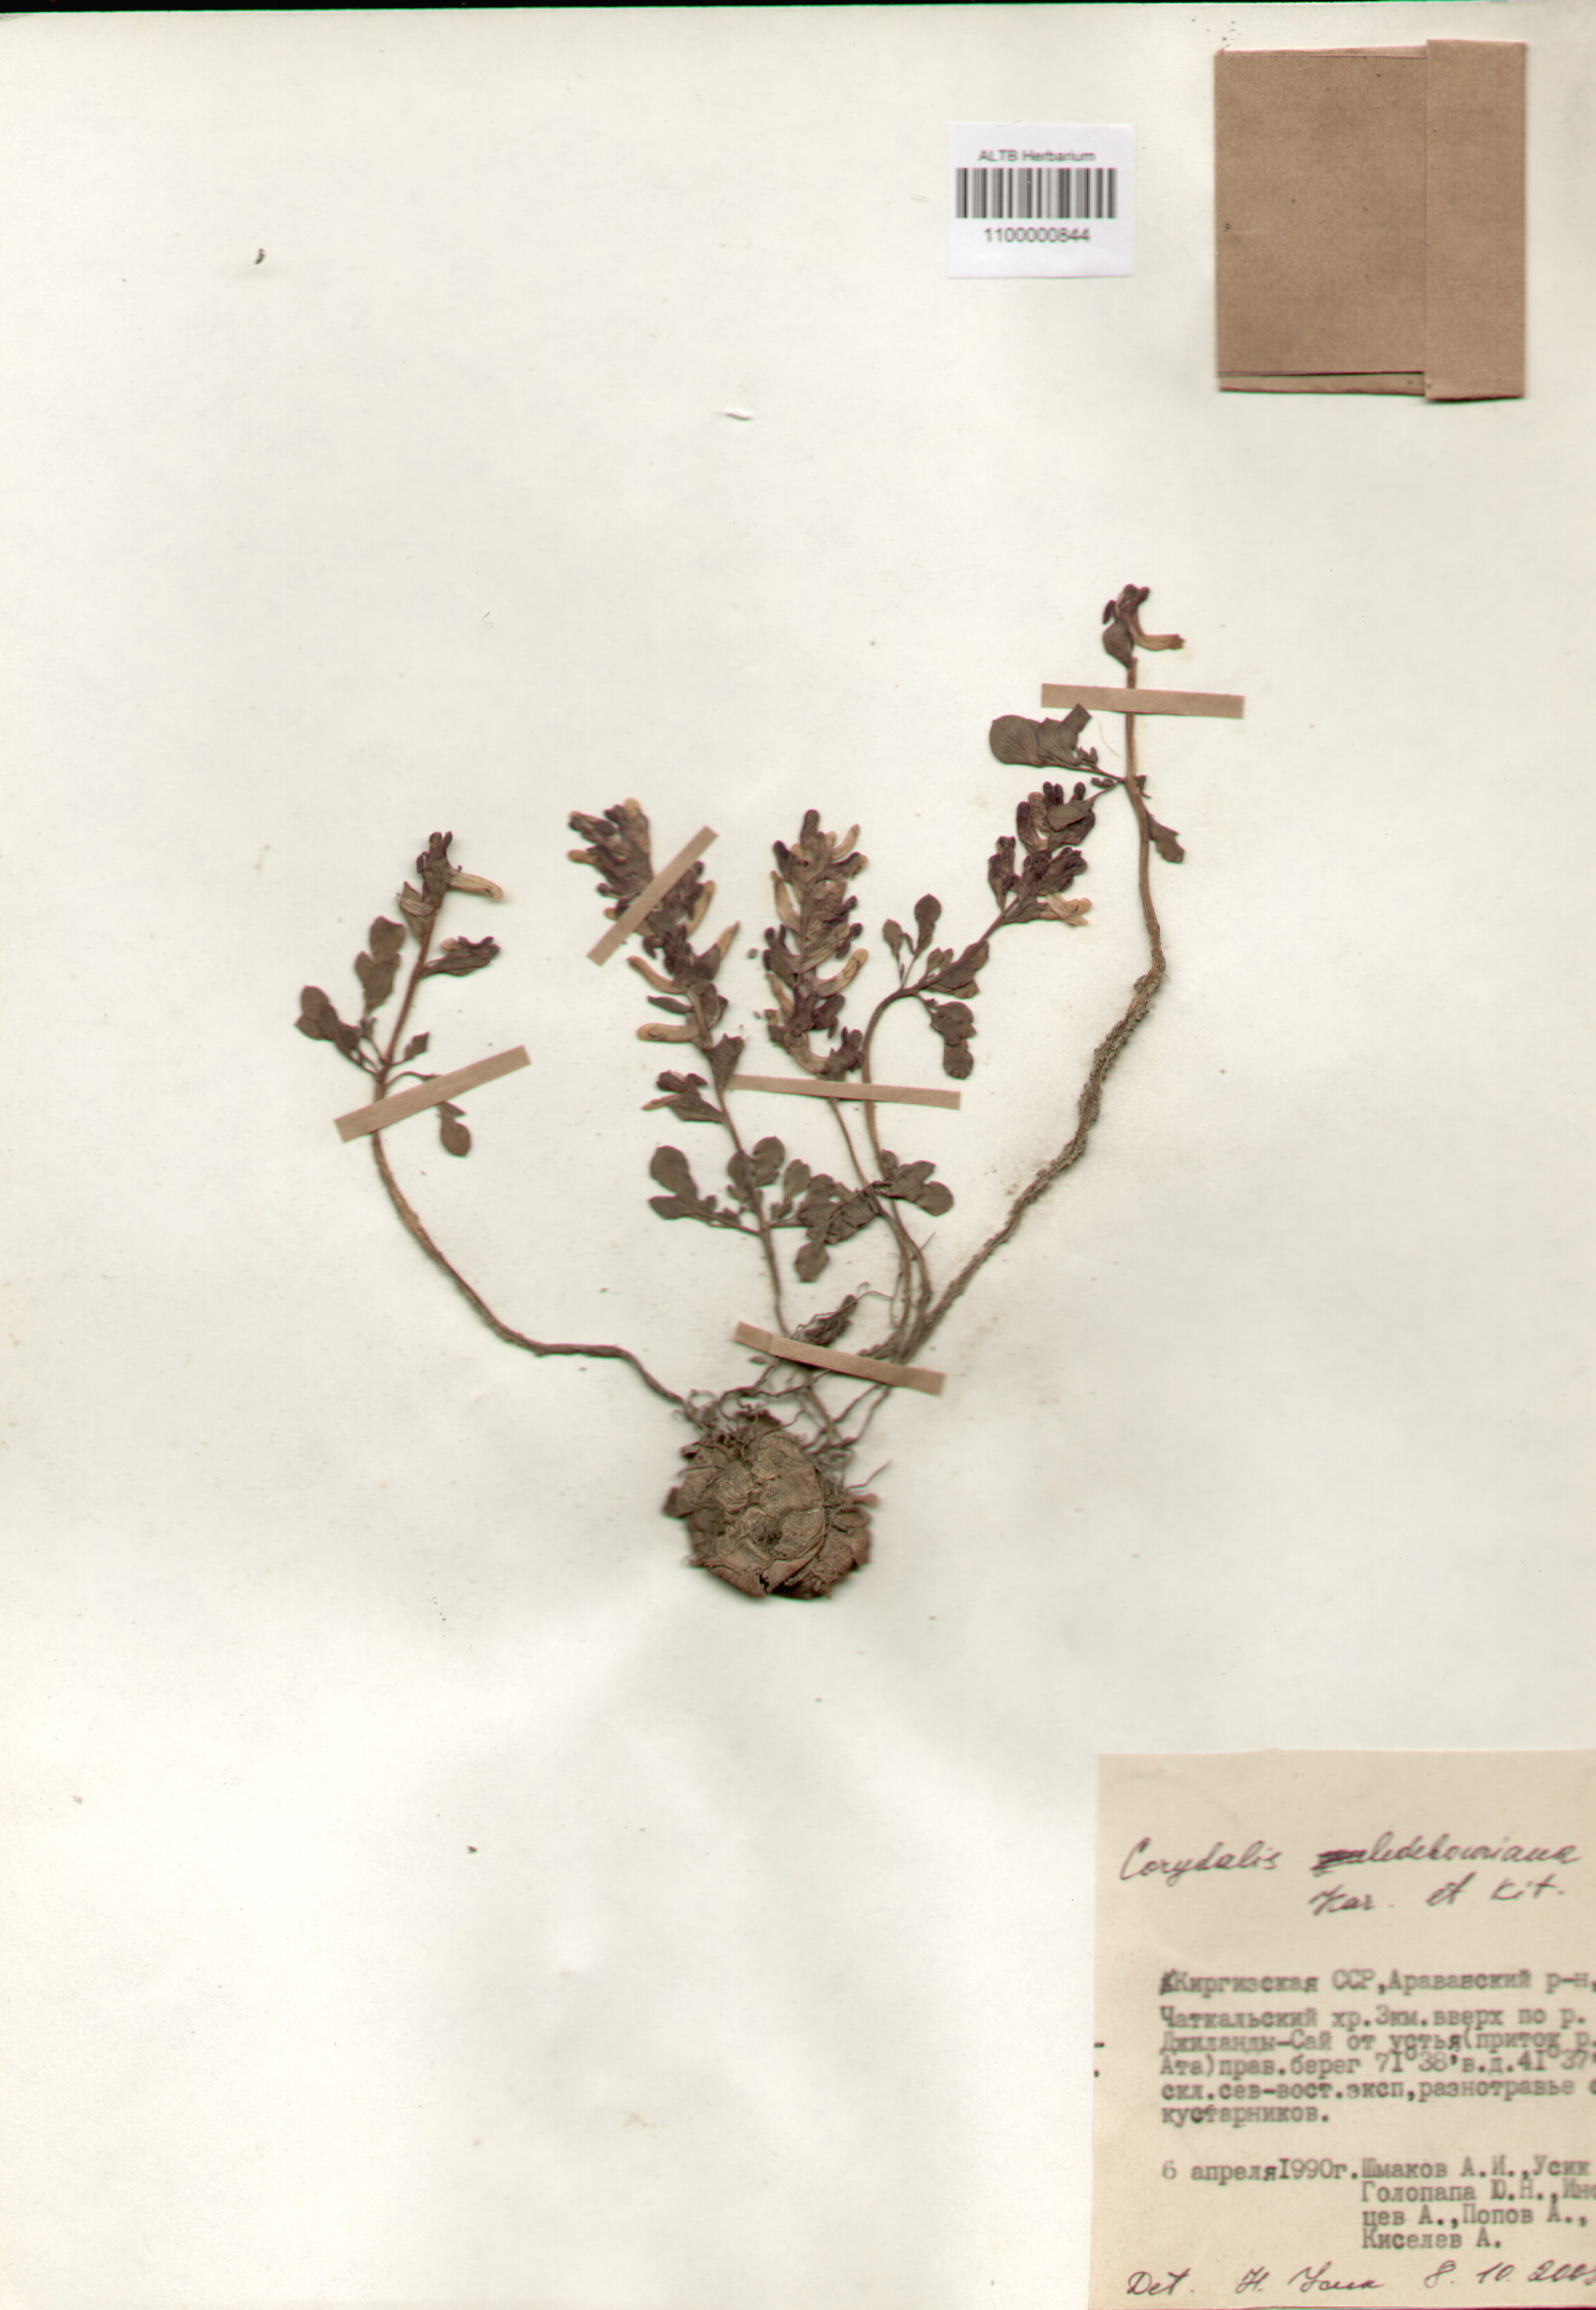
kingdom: Plantae
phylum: Tracheophyta
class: Magnoliopsida
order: Ranunculales
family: Papaveraceae
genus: Corydalis
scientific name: Corydalis ledebouriana
